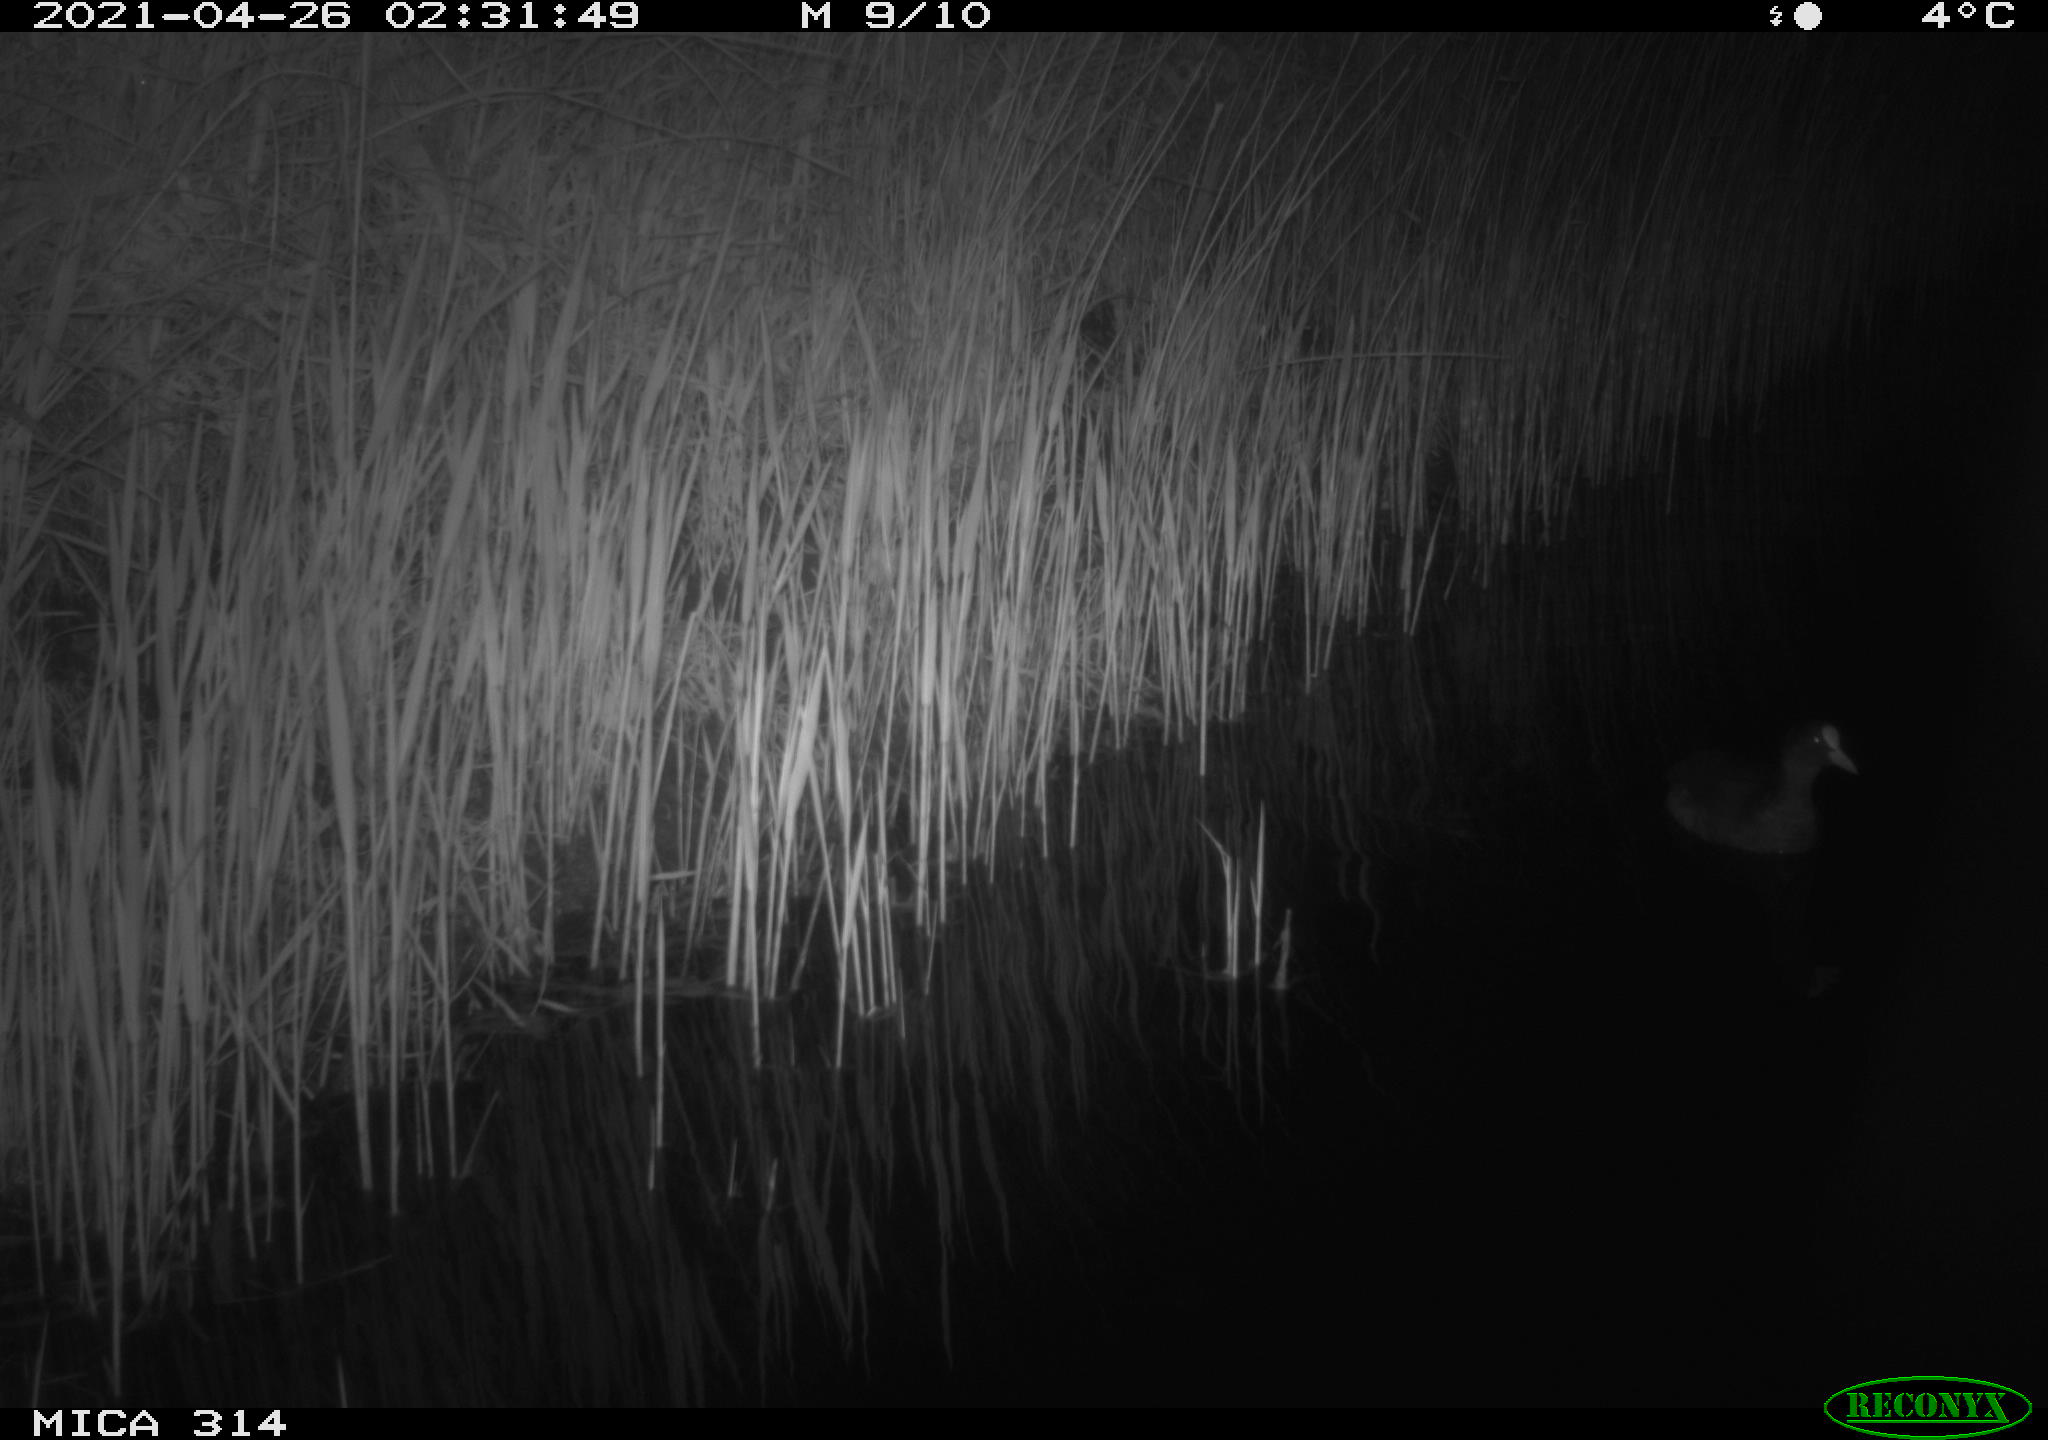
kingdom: Animalia
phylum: Chordata
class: Aves
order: Gruiformes
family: Rallidae
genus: Fulica
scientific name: Fulica atra
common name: Eurasian coot
